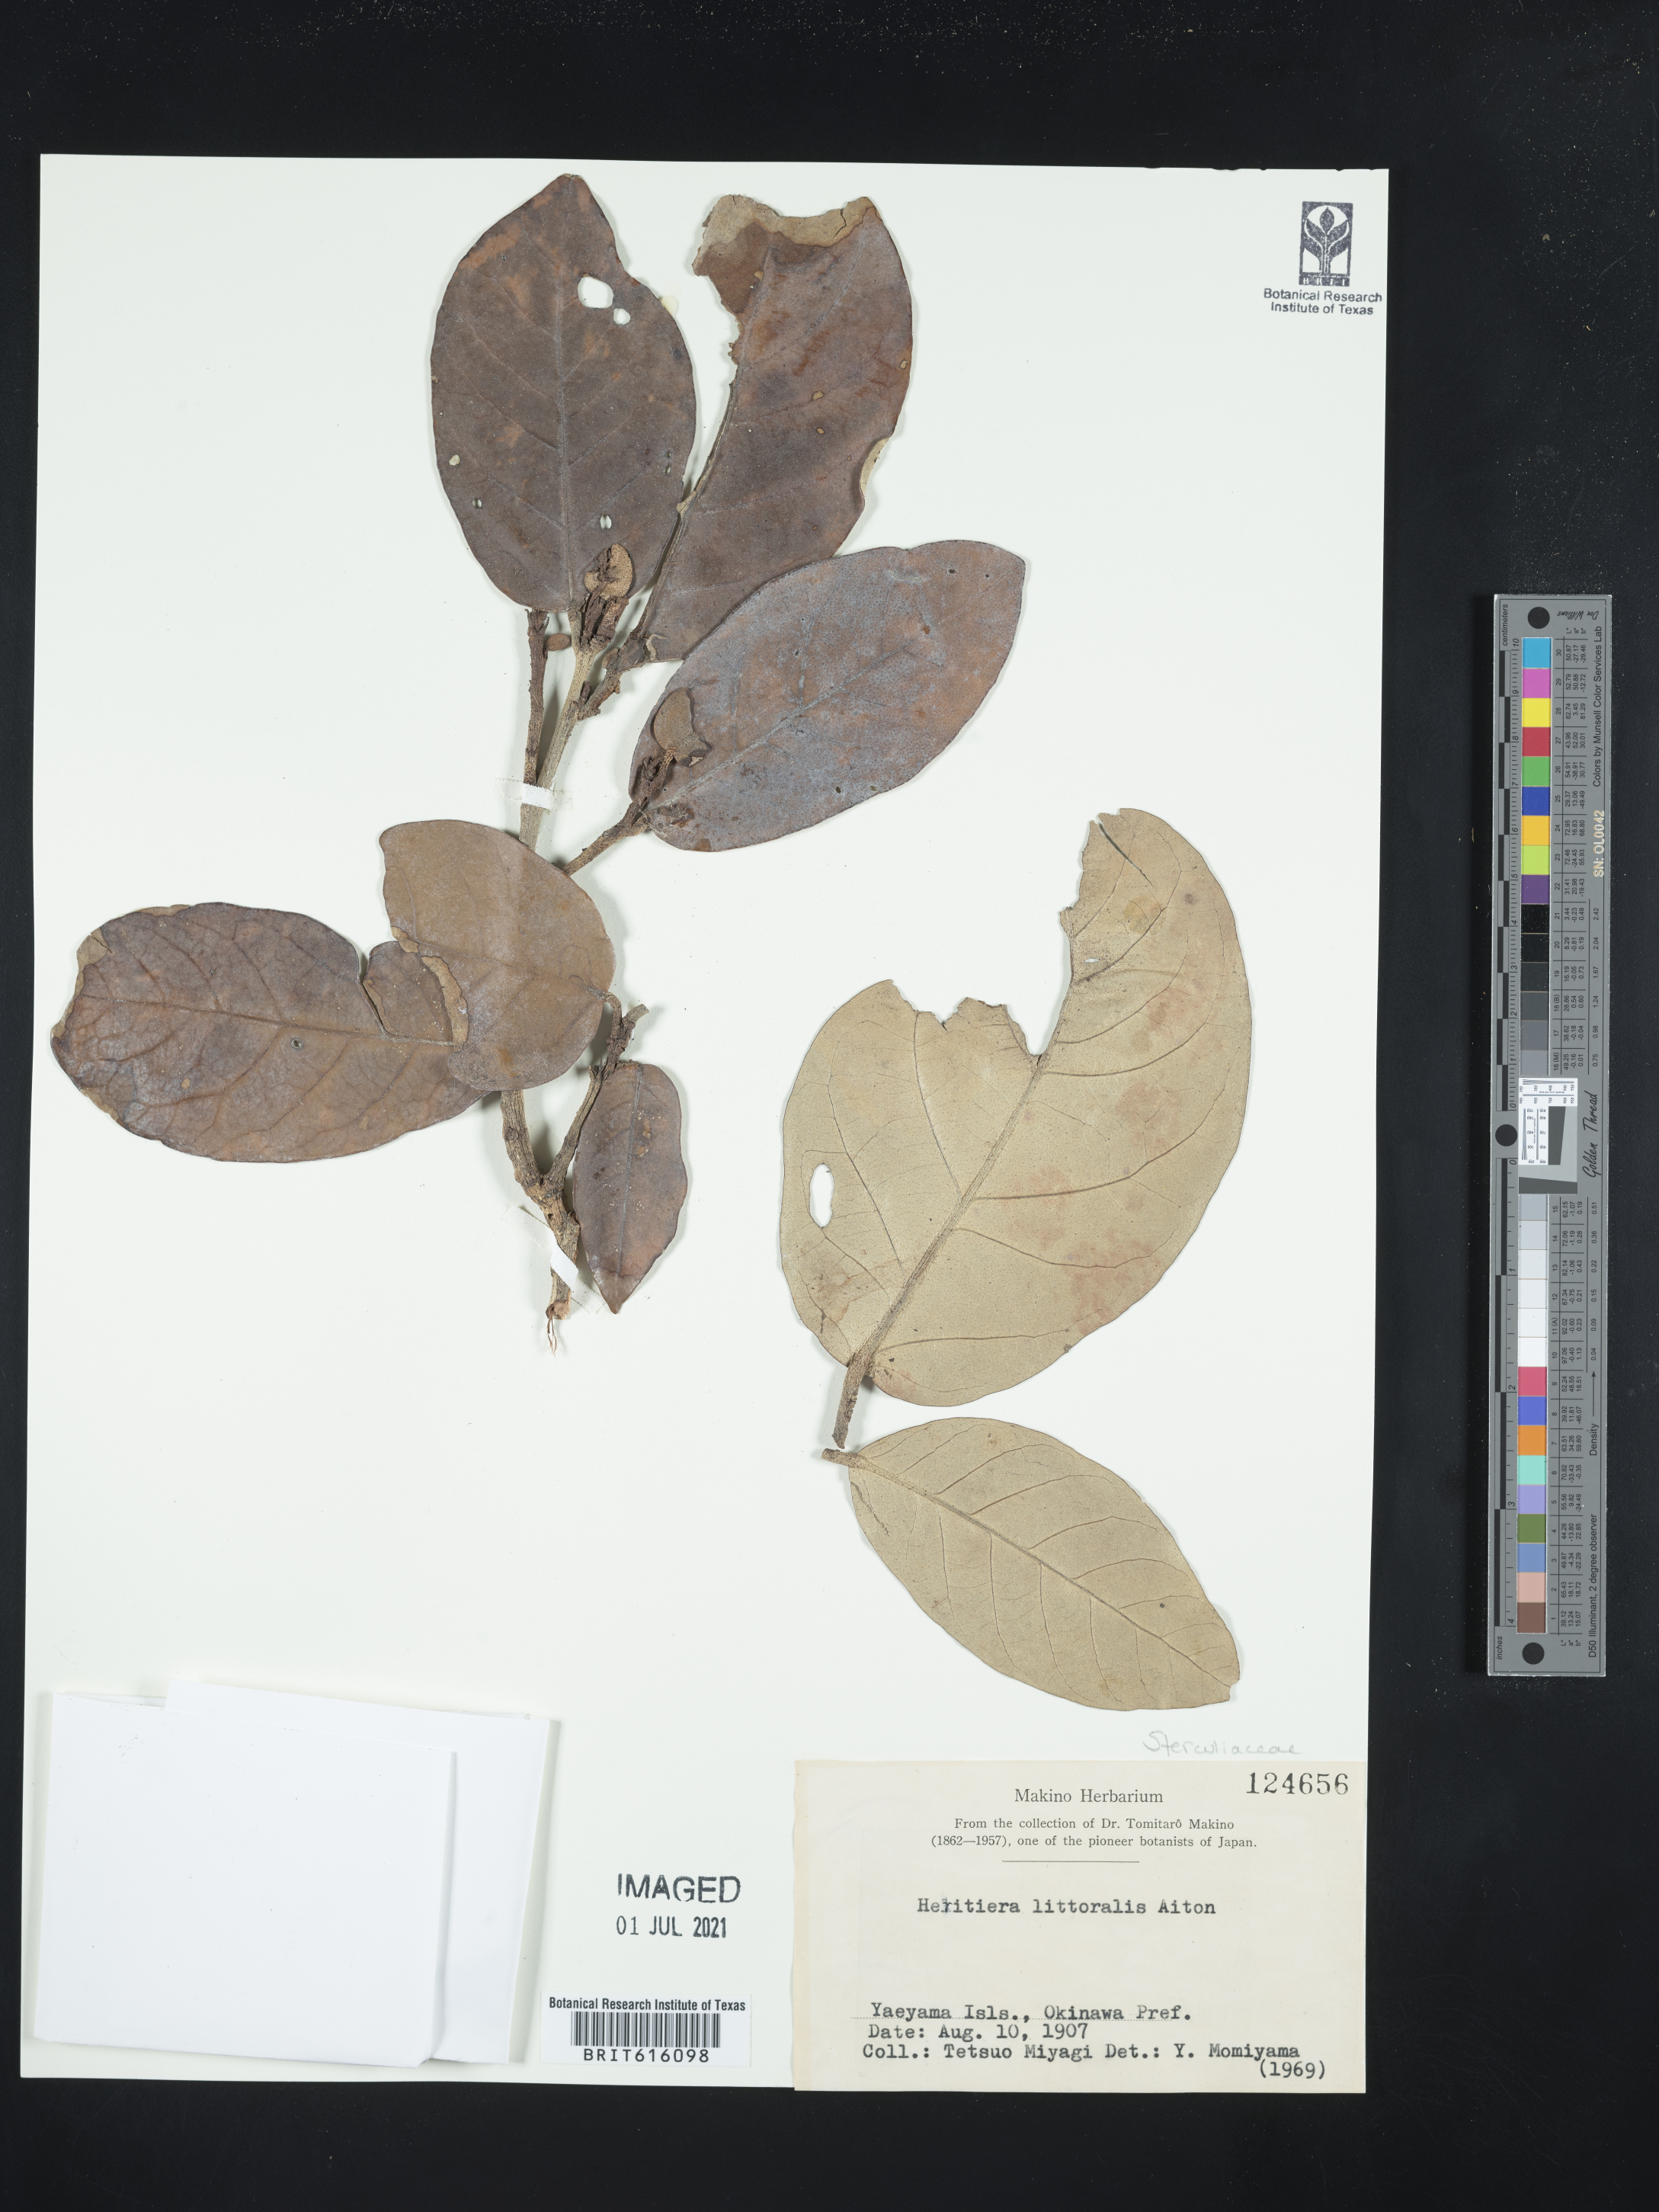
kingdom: Plantae
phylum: Tracheophyta
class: Magnoliopsida
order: Malvales
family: Malvaceae
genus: Heritiera
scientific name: Heritiera littoralis
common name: Looking-glass mangrove
